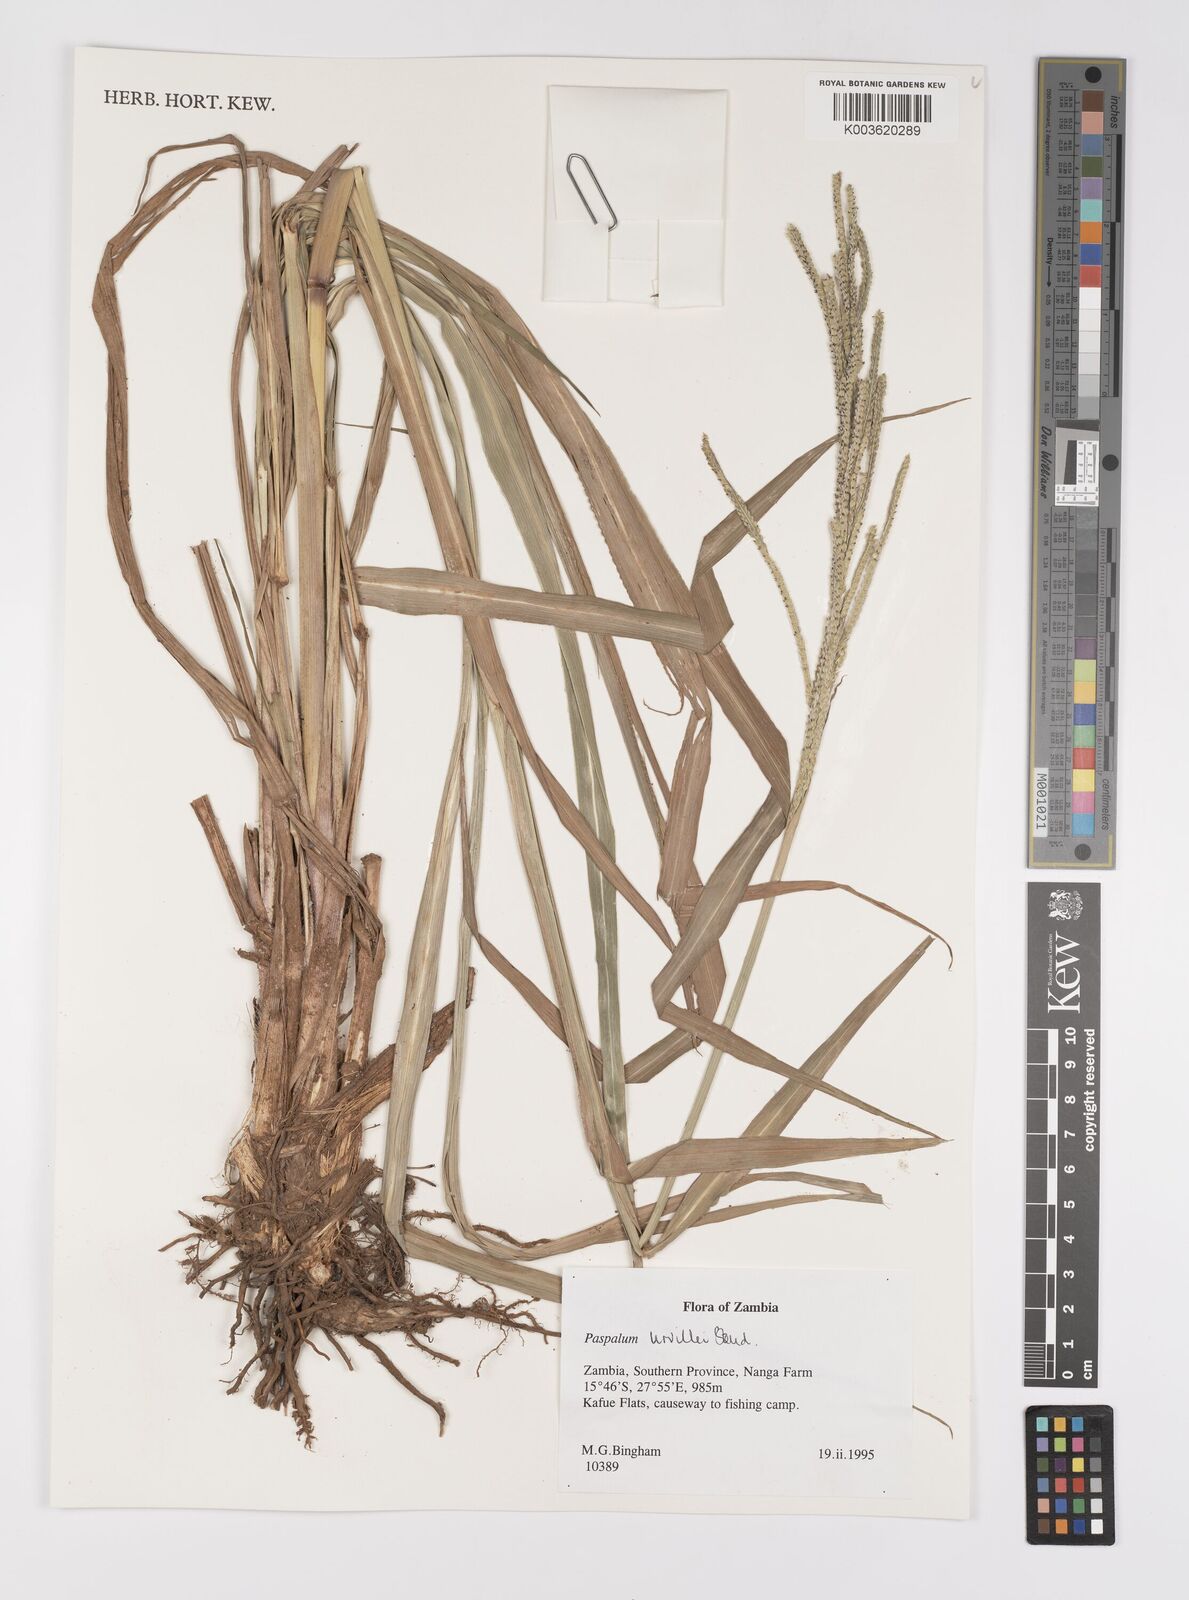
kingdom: Plantae
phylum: Tracheophyta
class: Liliopsida
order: Poales
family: Poaceae
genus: Paspalum
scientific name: Paspalum urvillei
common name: Vasey's grass
